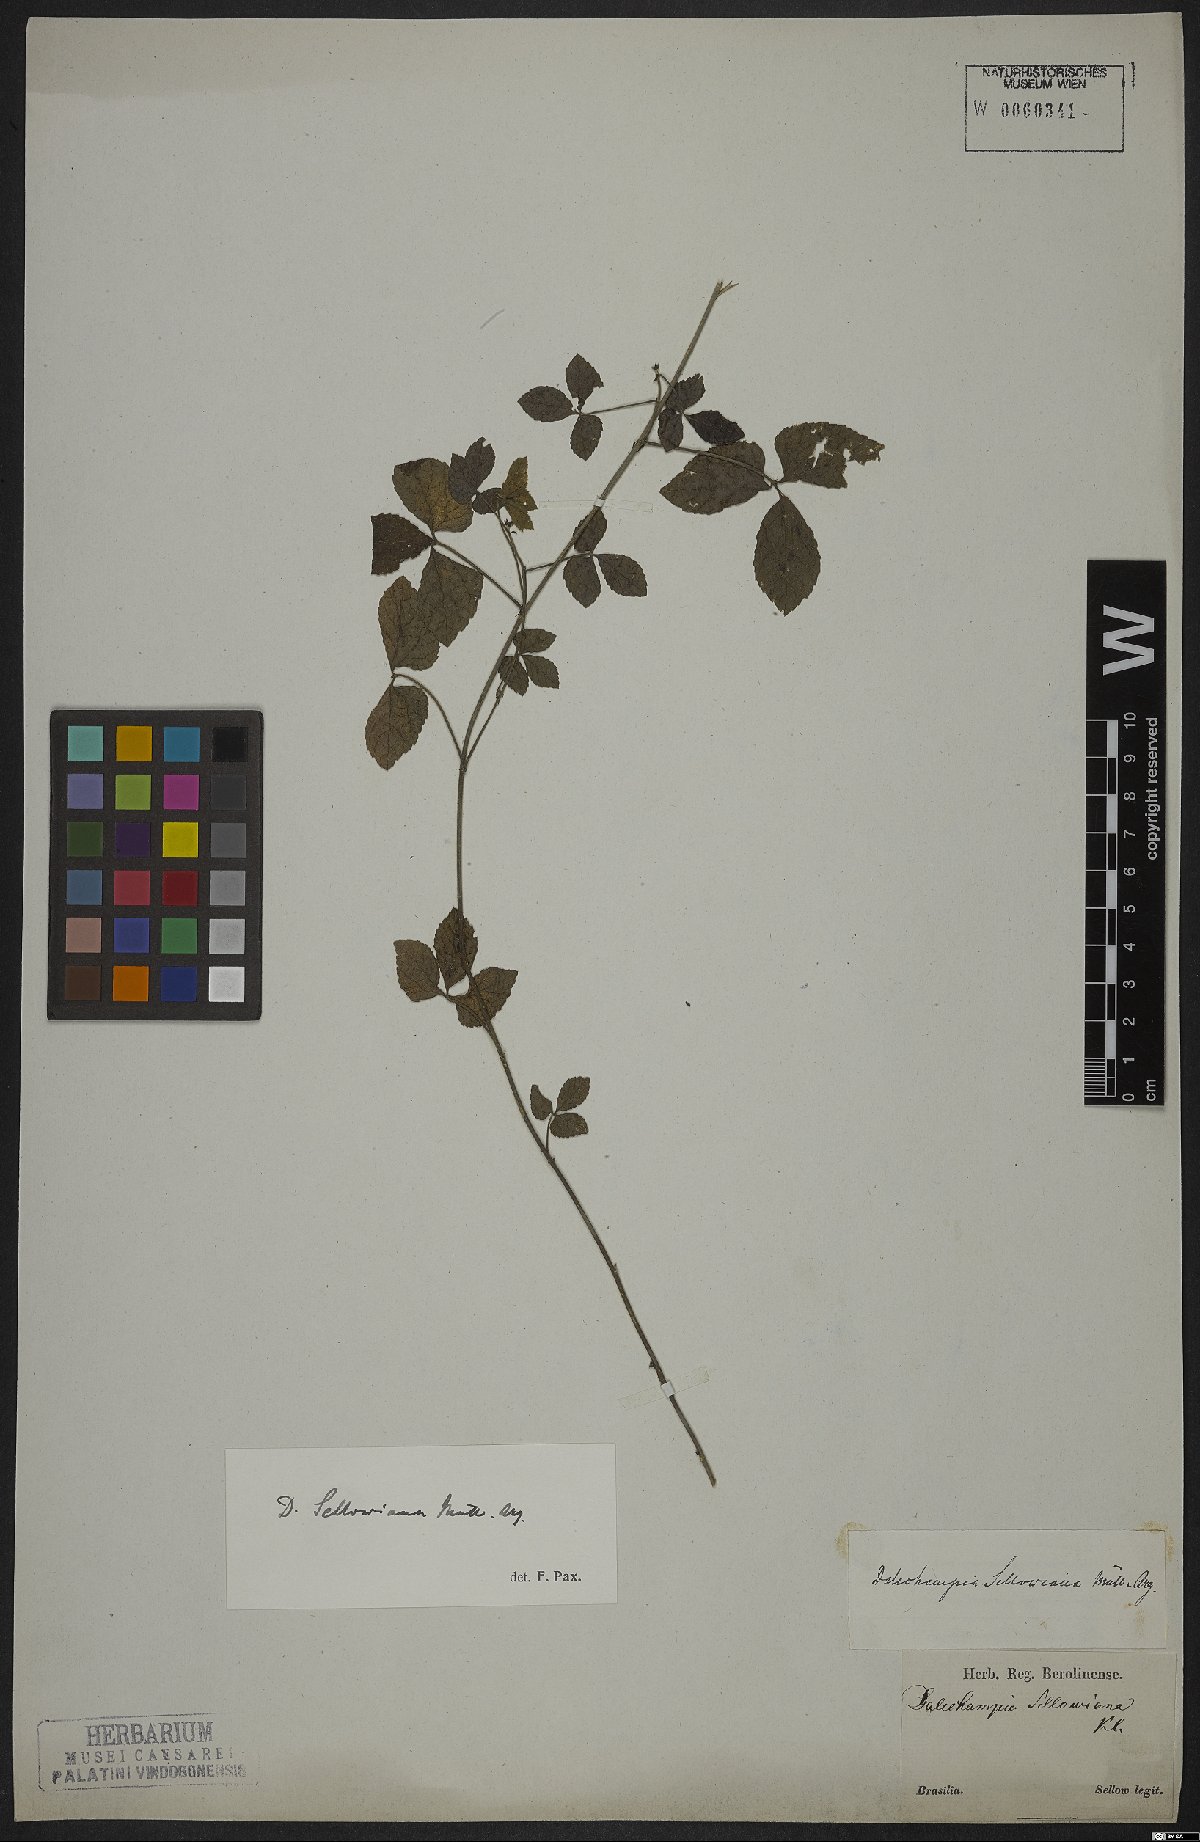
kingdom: Plantae
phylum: Tracheophyta
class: Magnoliopsida
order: Malpighiales
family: Euphorbiaceae
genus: Dalechampia
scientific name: Dalechampia micromeria
